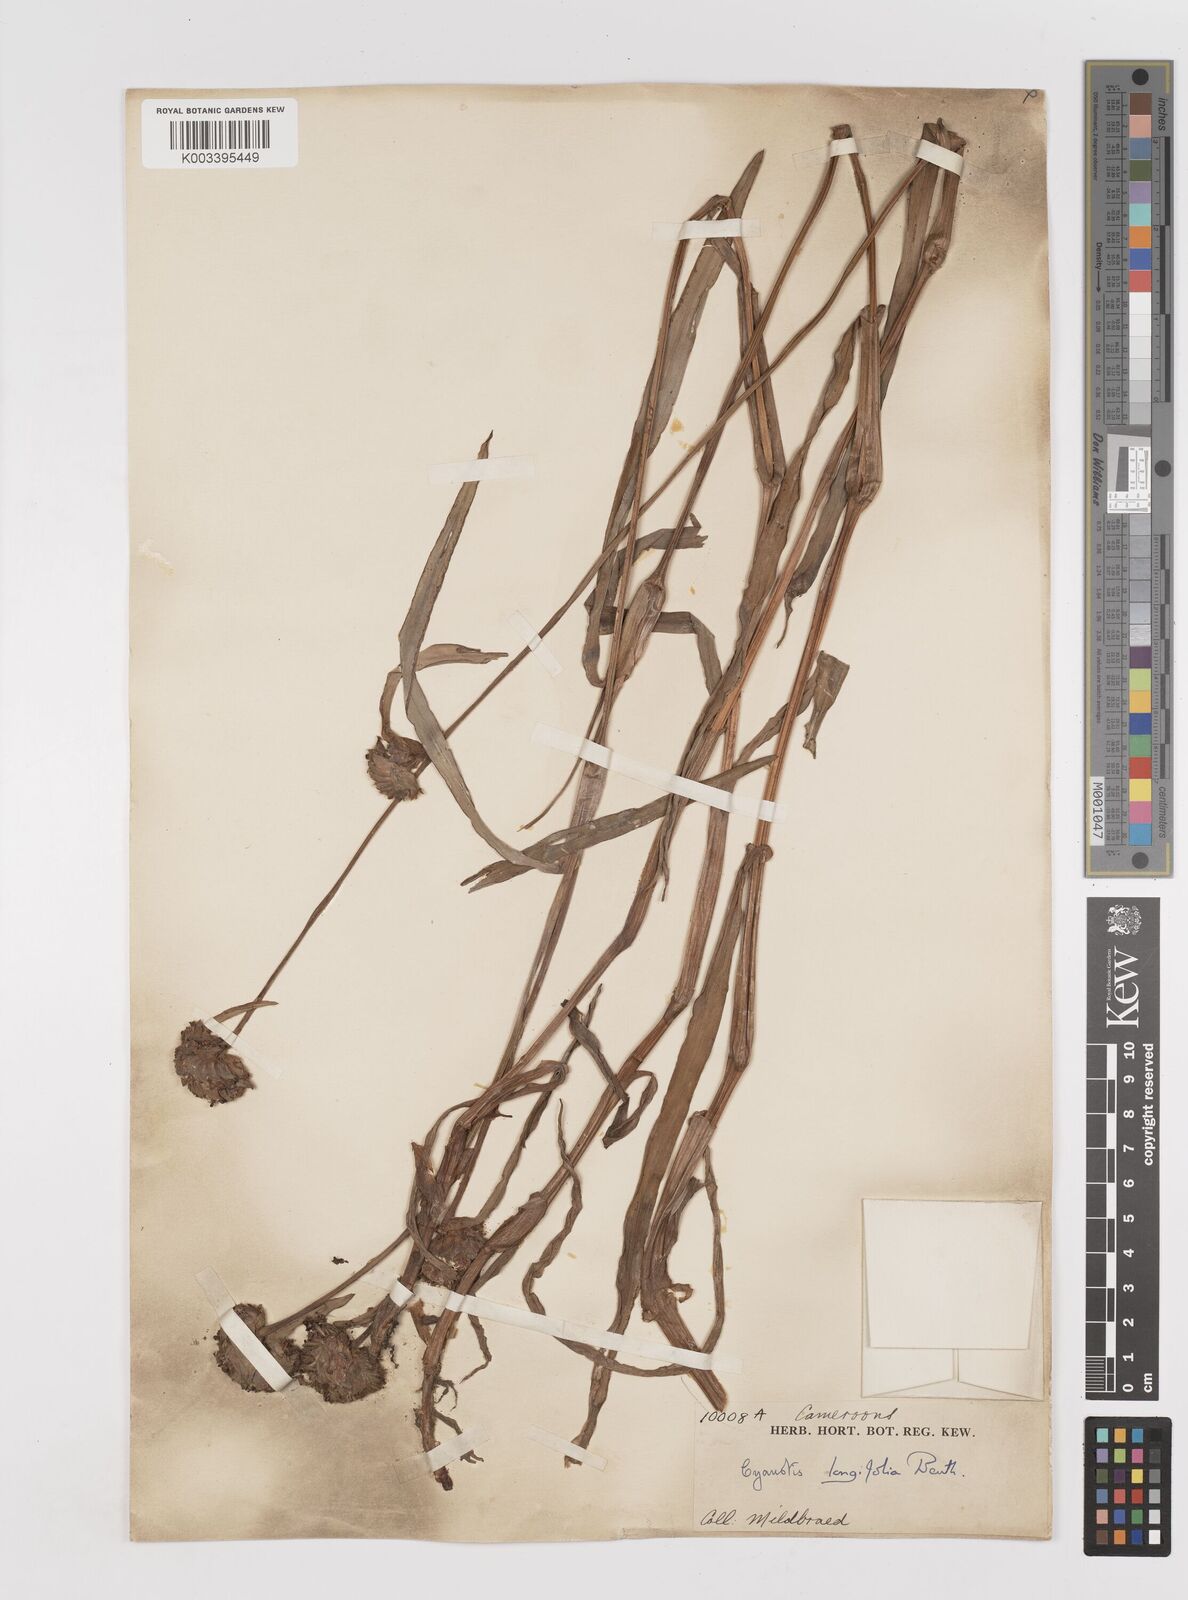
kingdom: Plantae
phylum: Tracheophyta
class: Liliopsida
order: Commelinales
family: Commelinaceae
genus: Cyanotis
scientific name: Cyanotis longifolia
